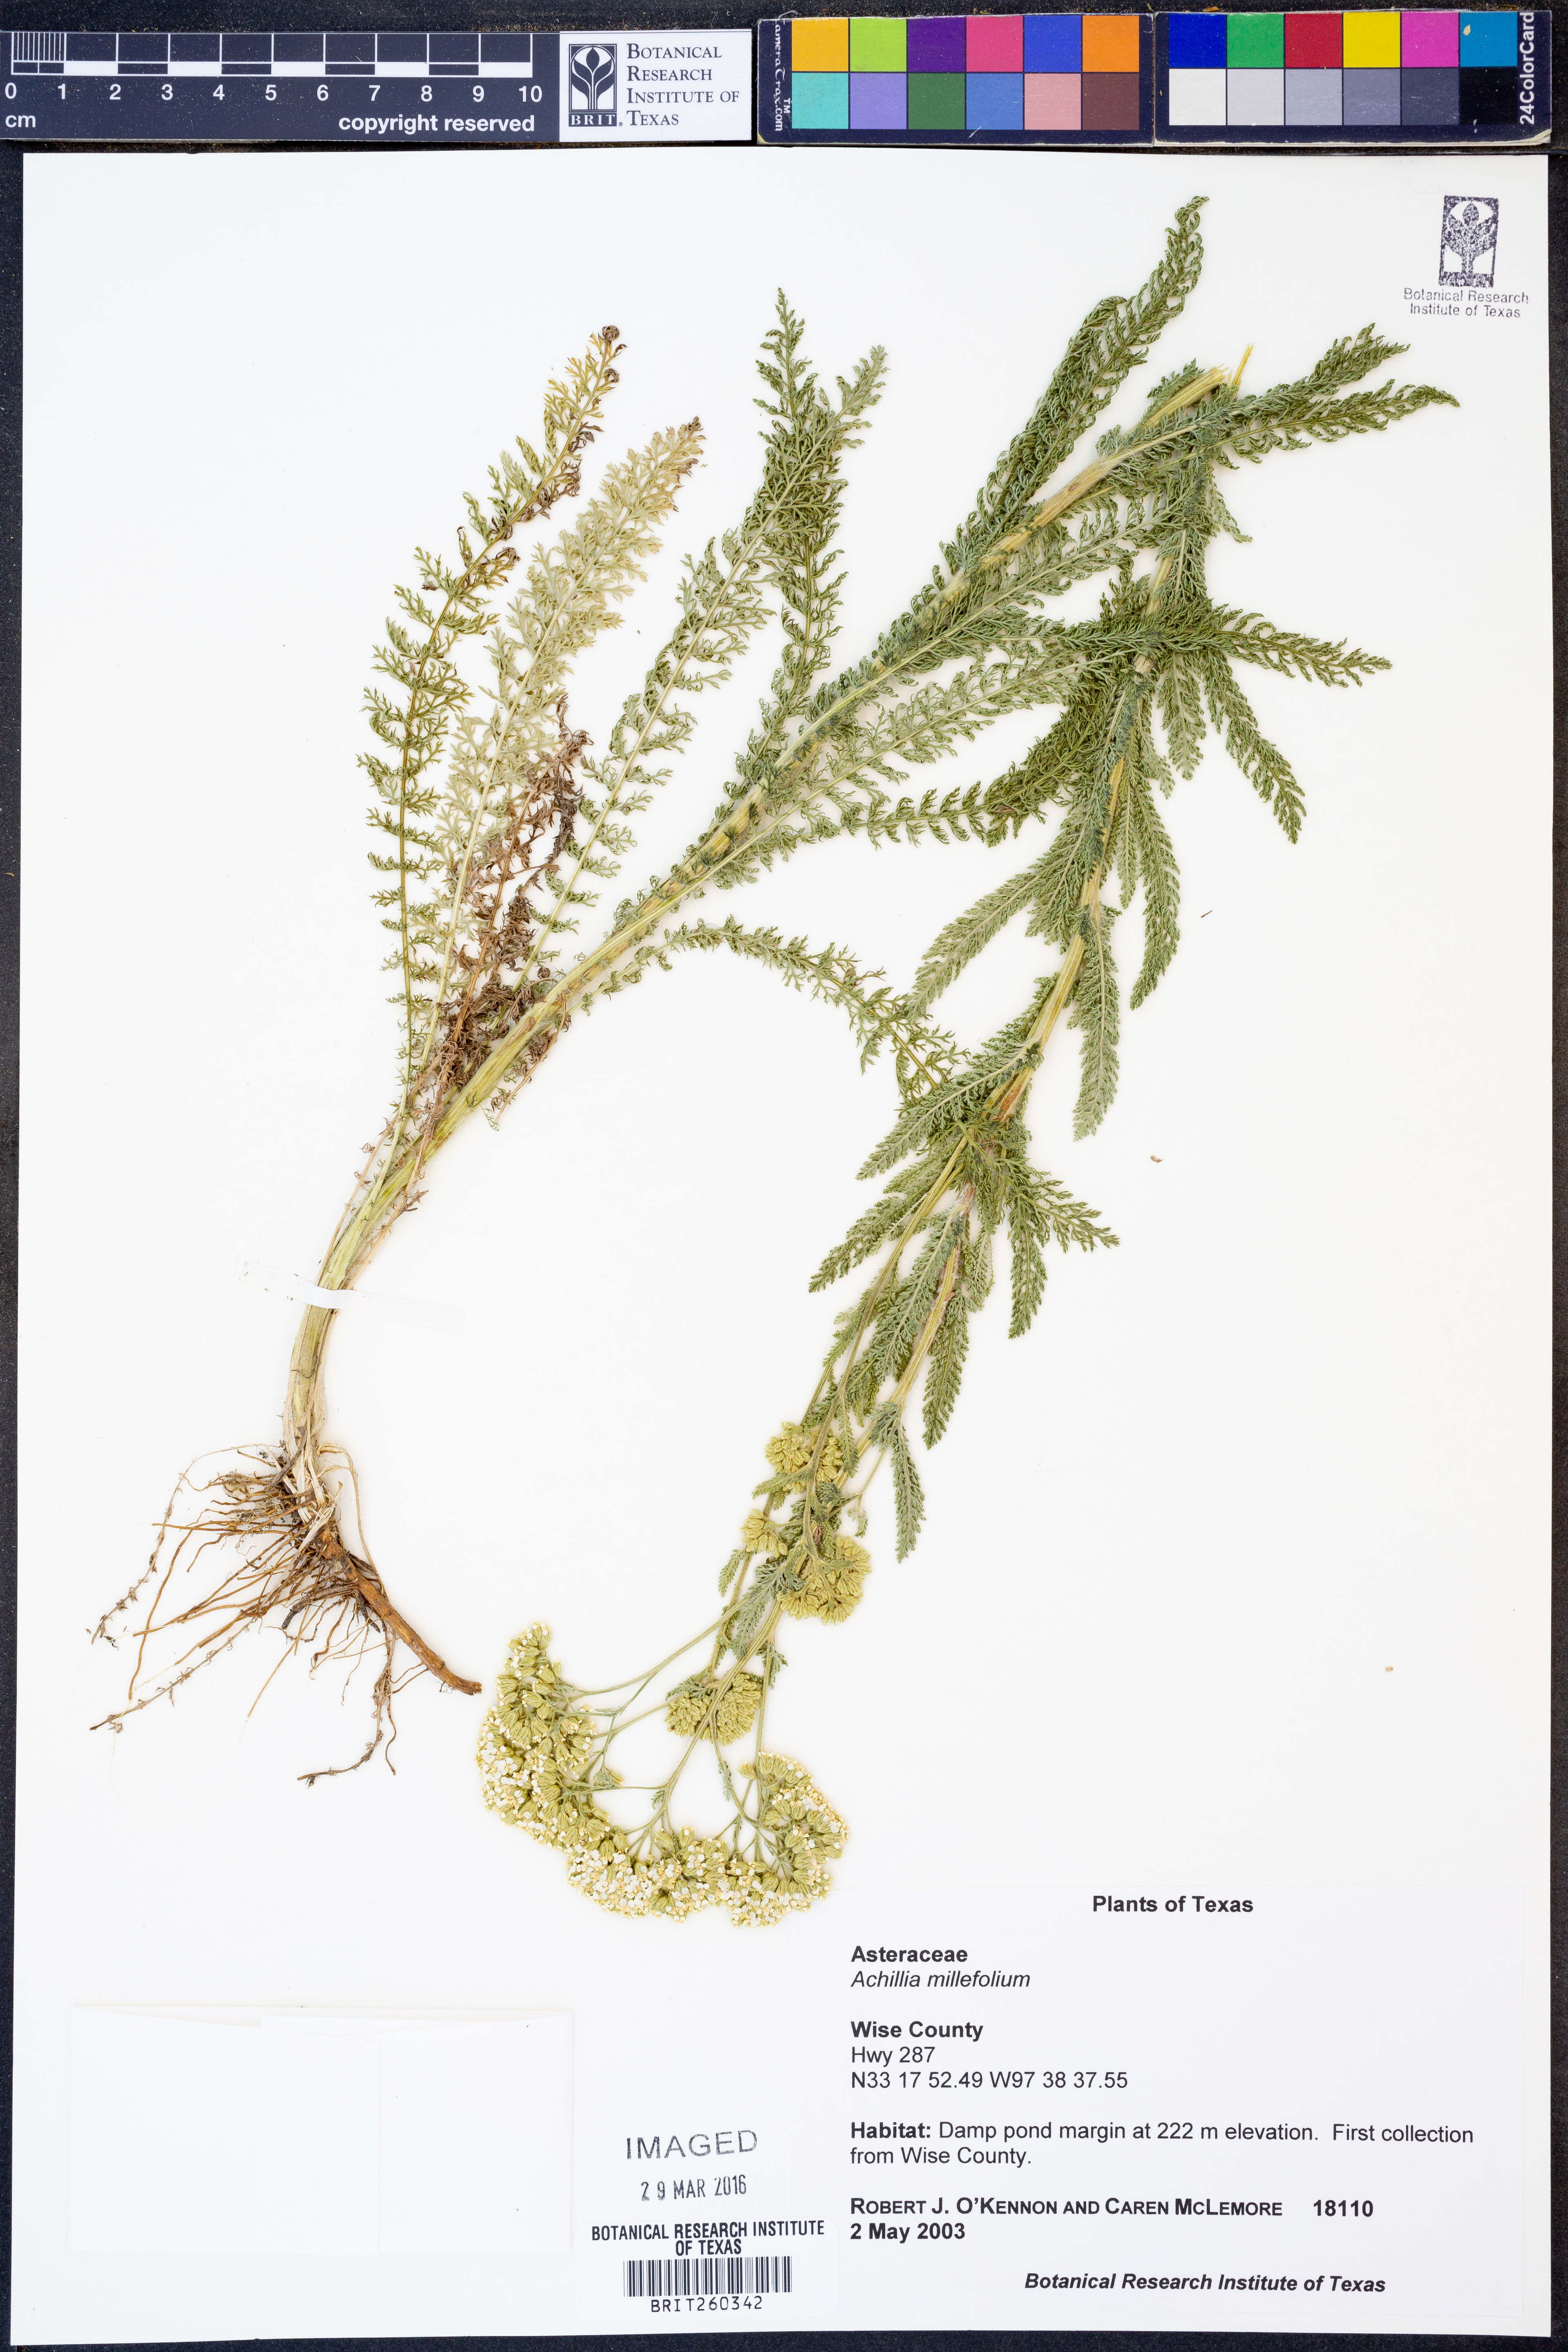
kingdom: Plantae
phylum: Tracheophyta
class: Magnoliopsida
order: Asterales
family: Asteraceae
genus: Achillea
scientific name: Achillea millefolium
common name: Yarrow
